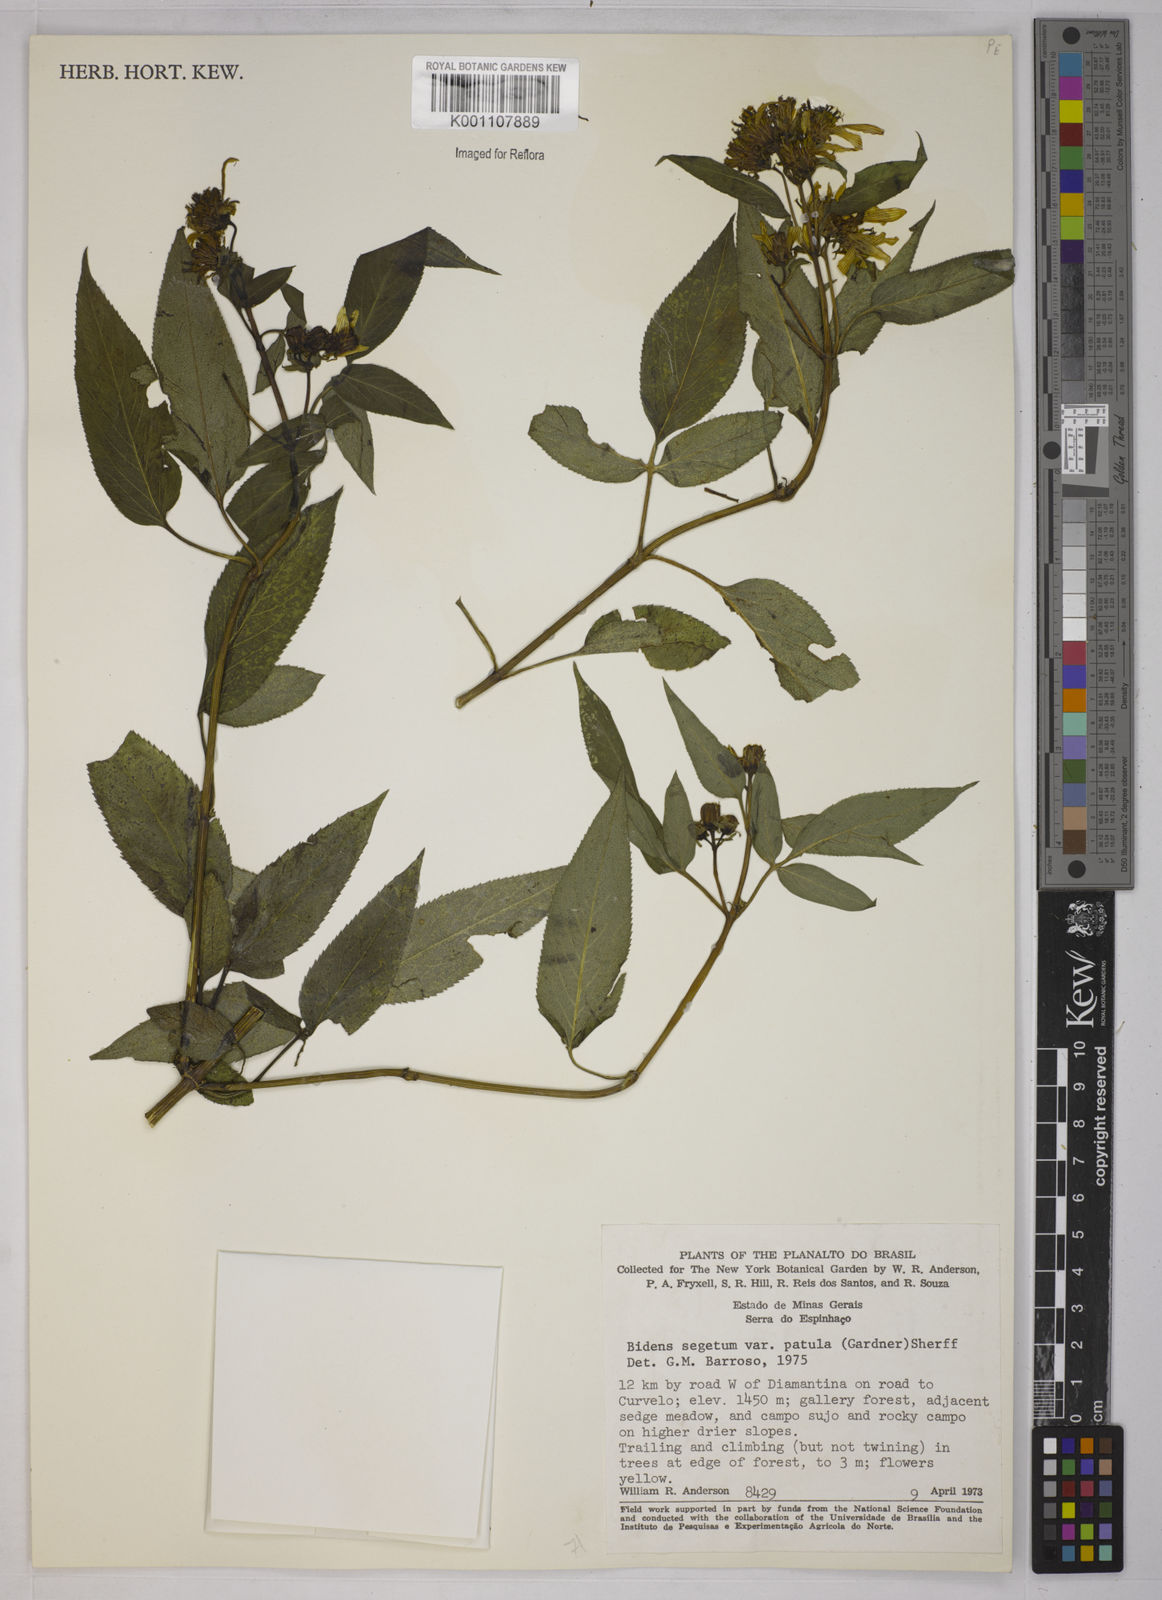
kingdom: Plantae
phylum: Tracheophyta
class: Magnoliopsida
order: Asterales
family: Asteraceae
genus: Bidens
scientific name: Bidens segetum
